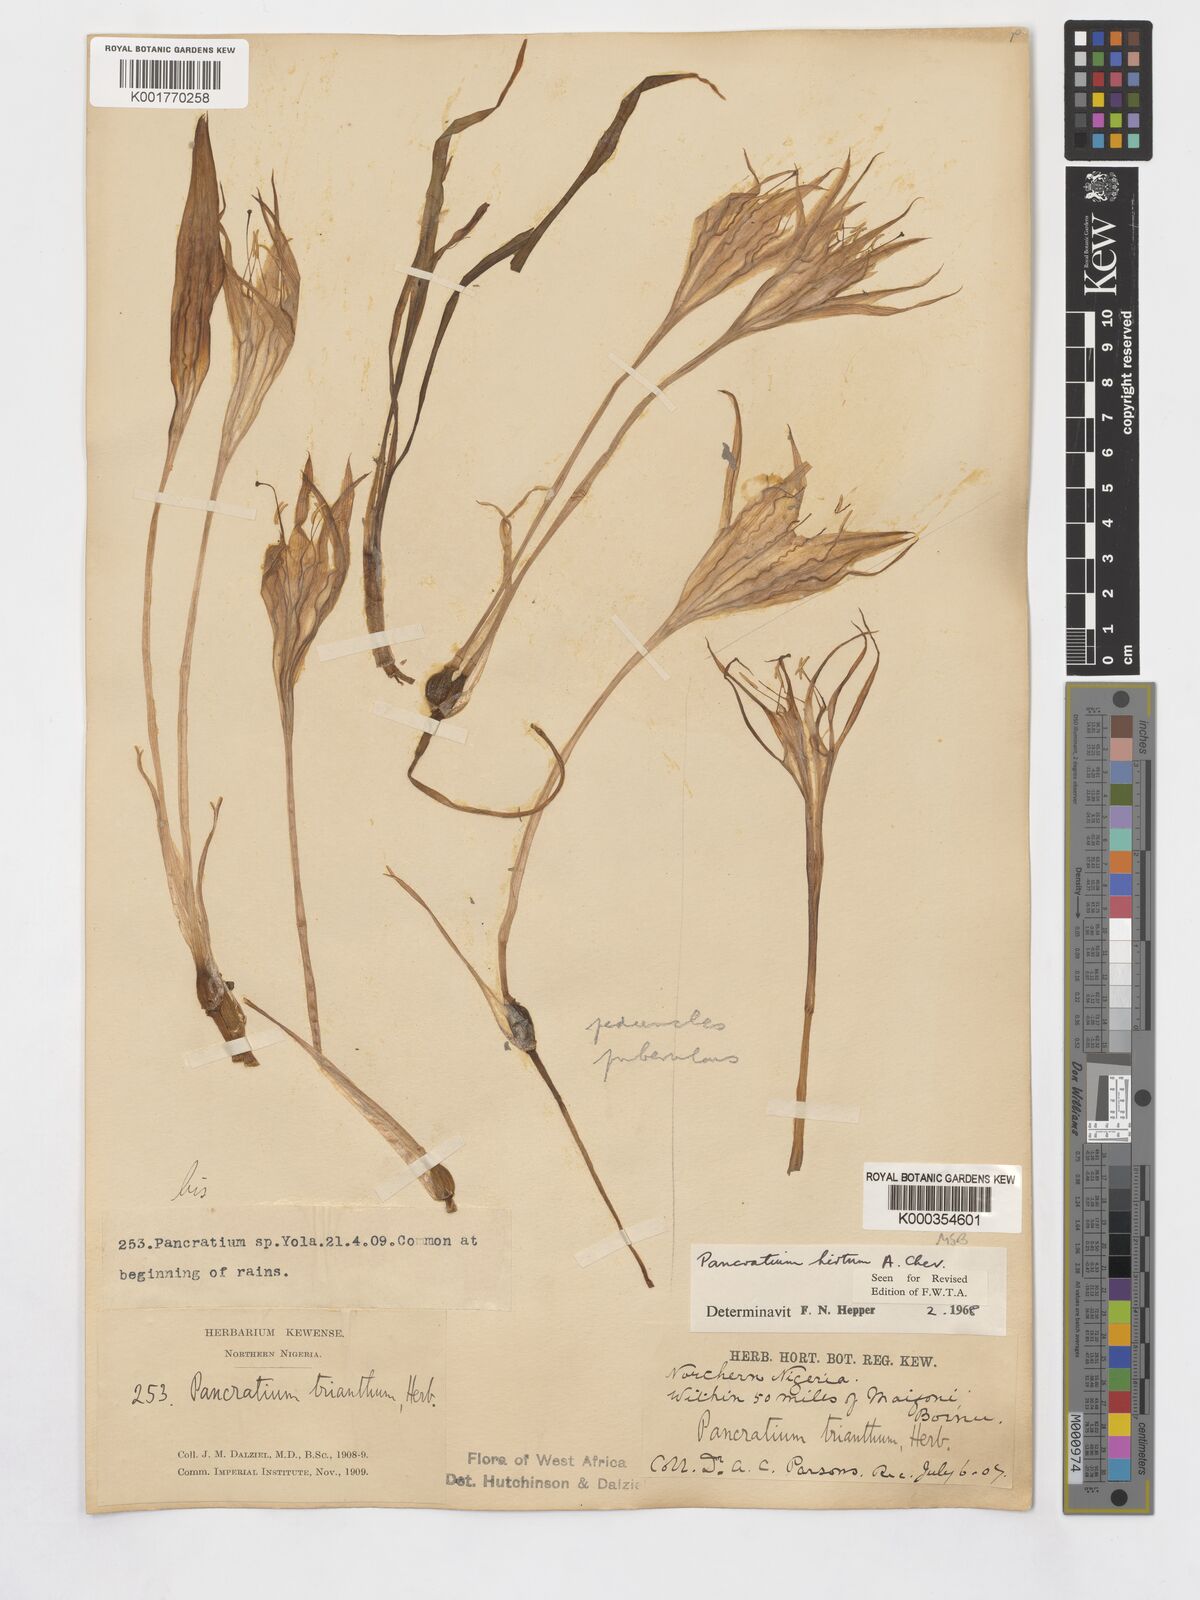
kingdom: Plantae
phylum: Tracheophyta
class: Liliopsida
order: Asparagales
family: Amaryllidaceae
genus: Pancratium
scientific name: Pancratium trianthum
